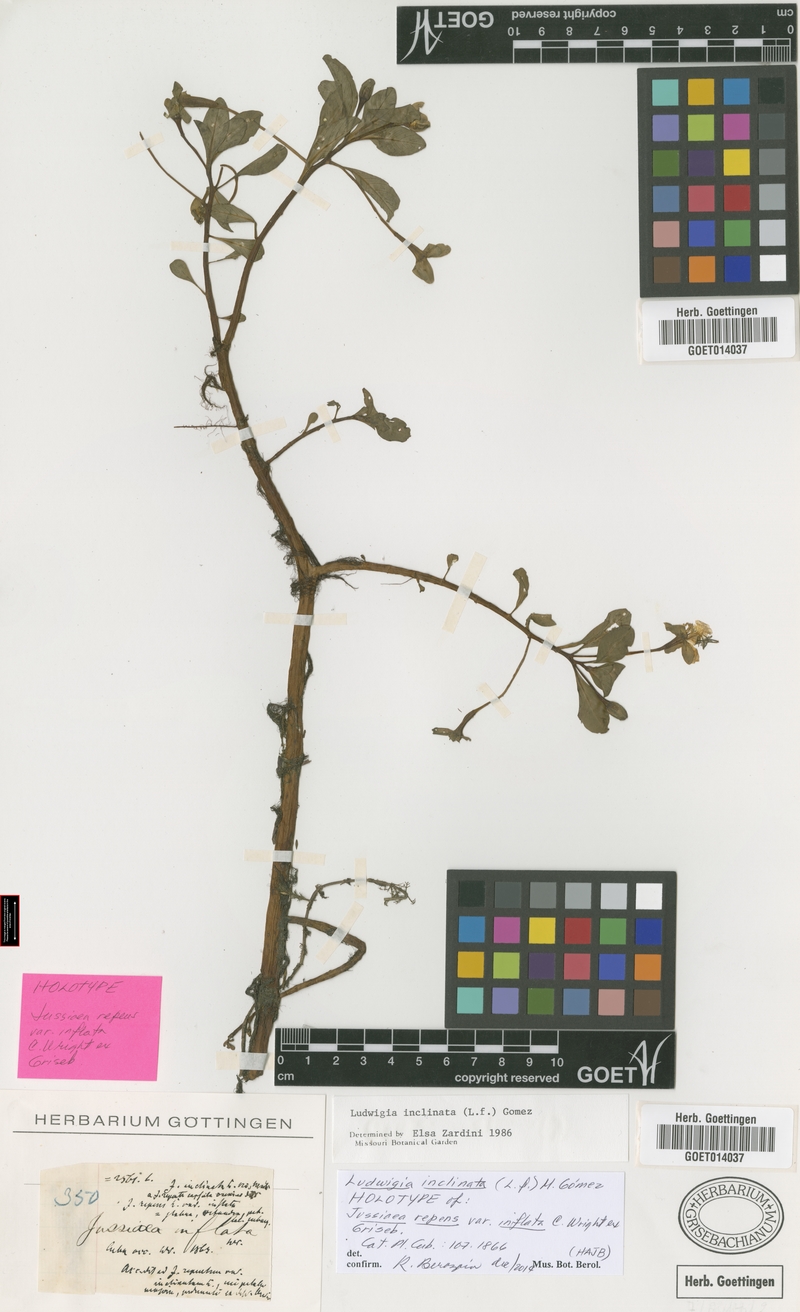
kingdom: Plantae
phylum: Tracheophyta
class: Magnoliopsida
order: Myrtales
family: Onagraceae
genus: Ludwigia
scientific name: Ludwigia inclinata
